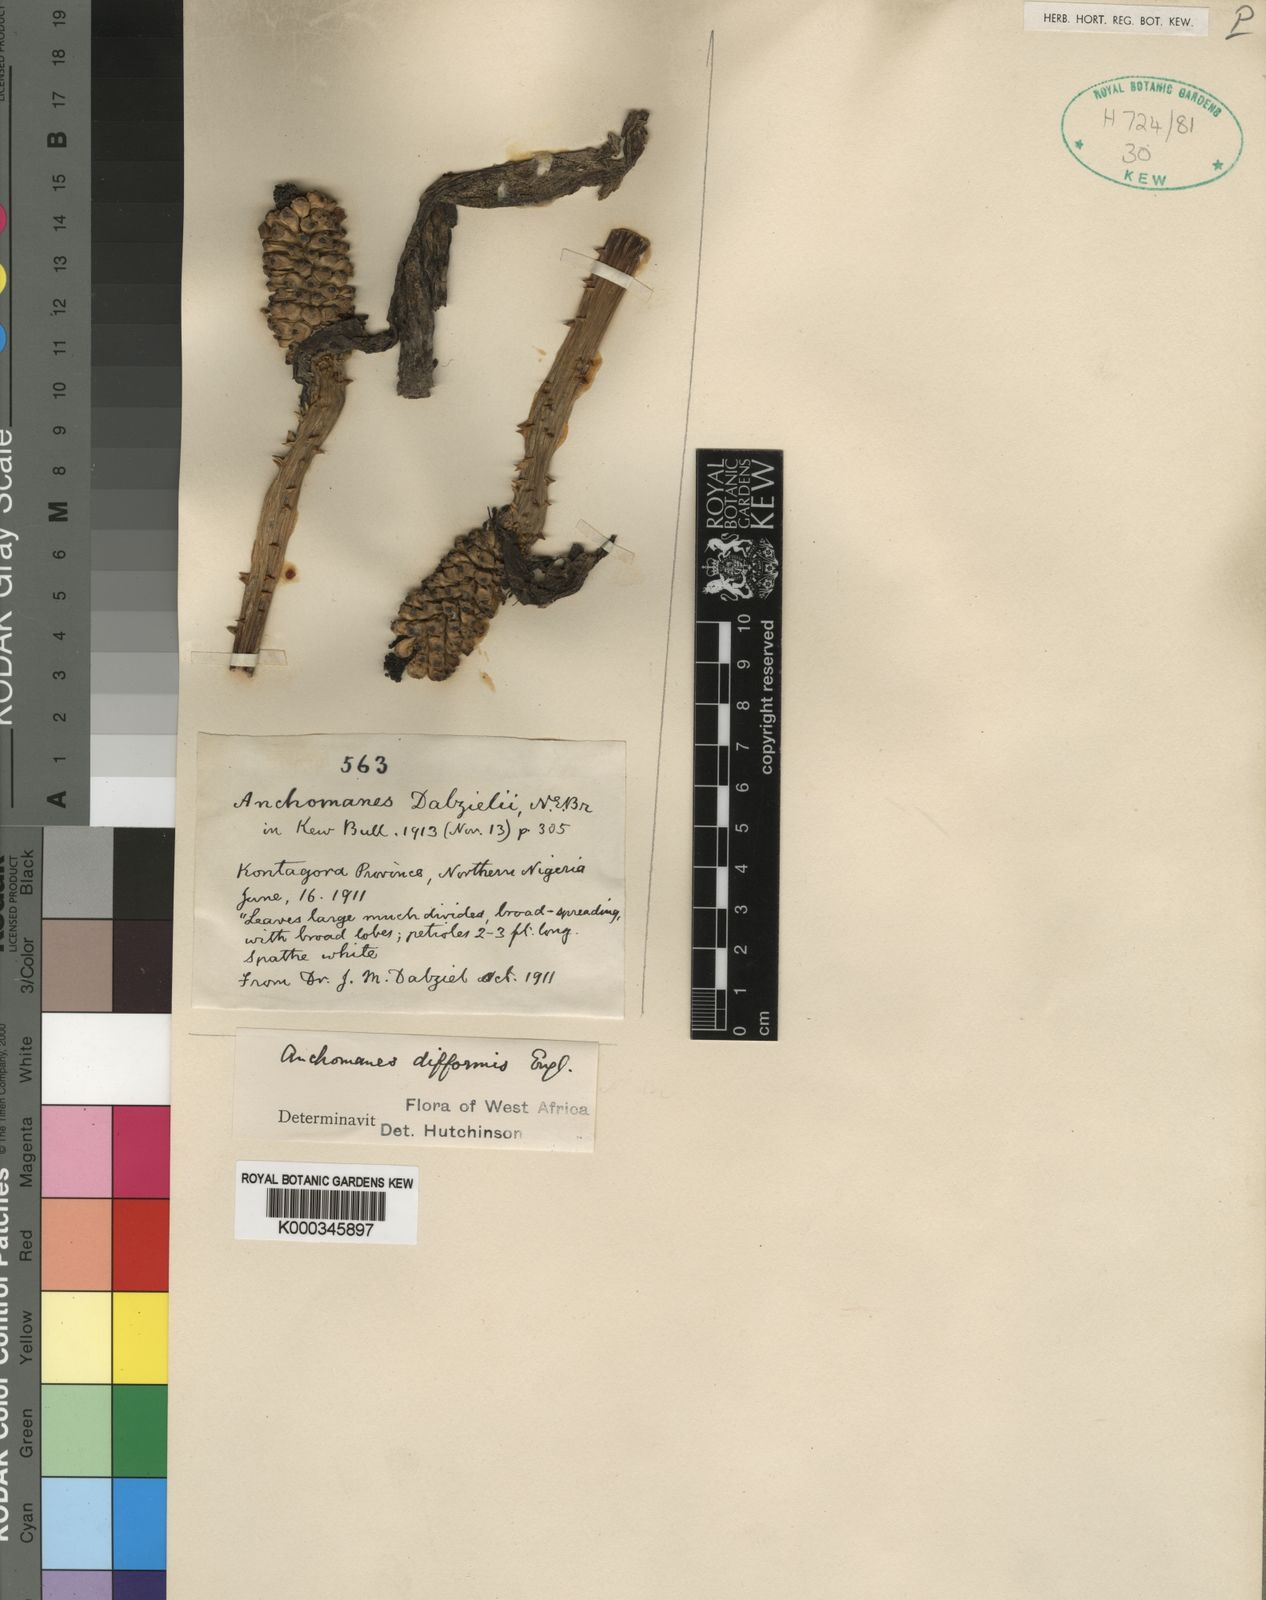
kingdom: Plantae
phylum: Tracheophyta
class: Liliopsida
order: Alismatales
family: Araceae
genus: Anchomanes
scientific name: Anchomanes dalzielii
